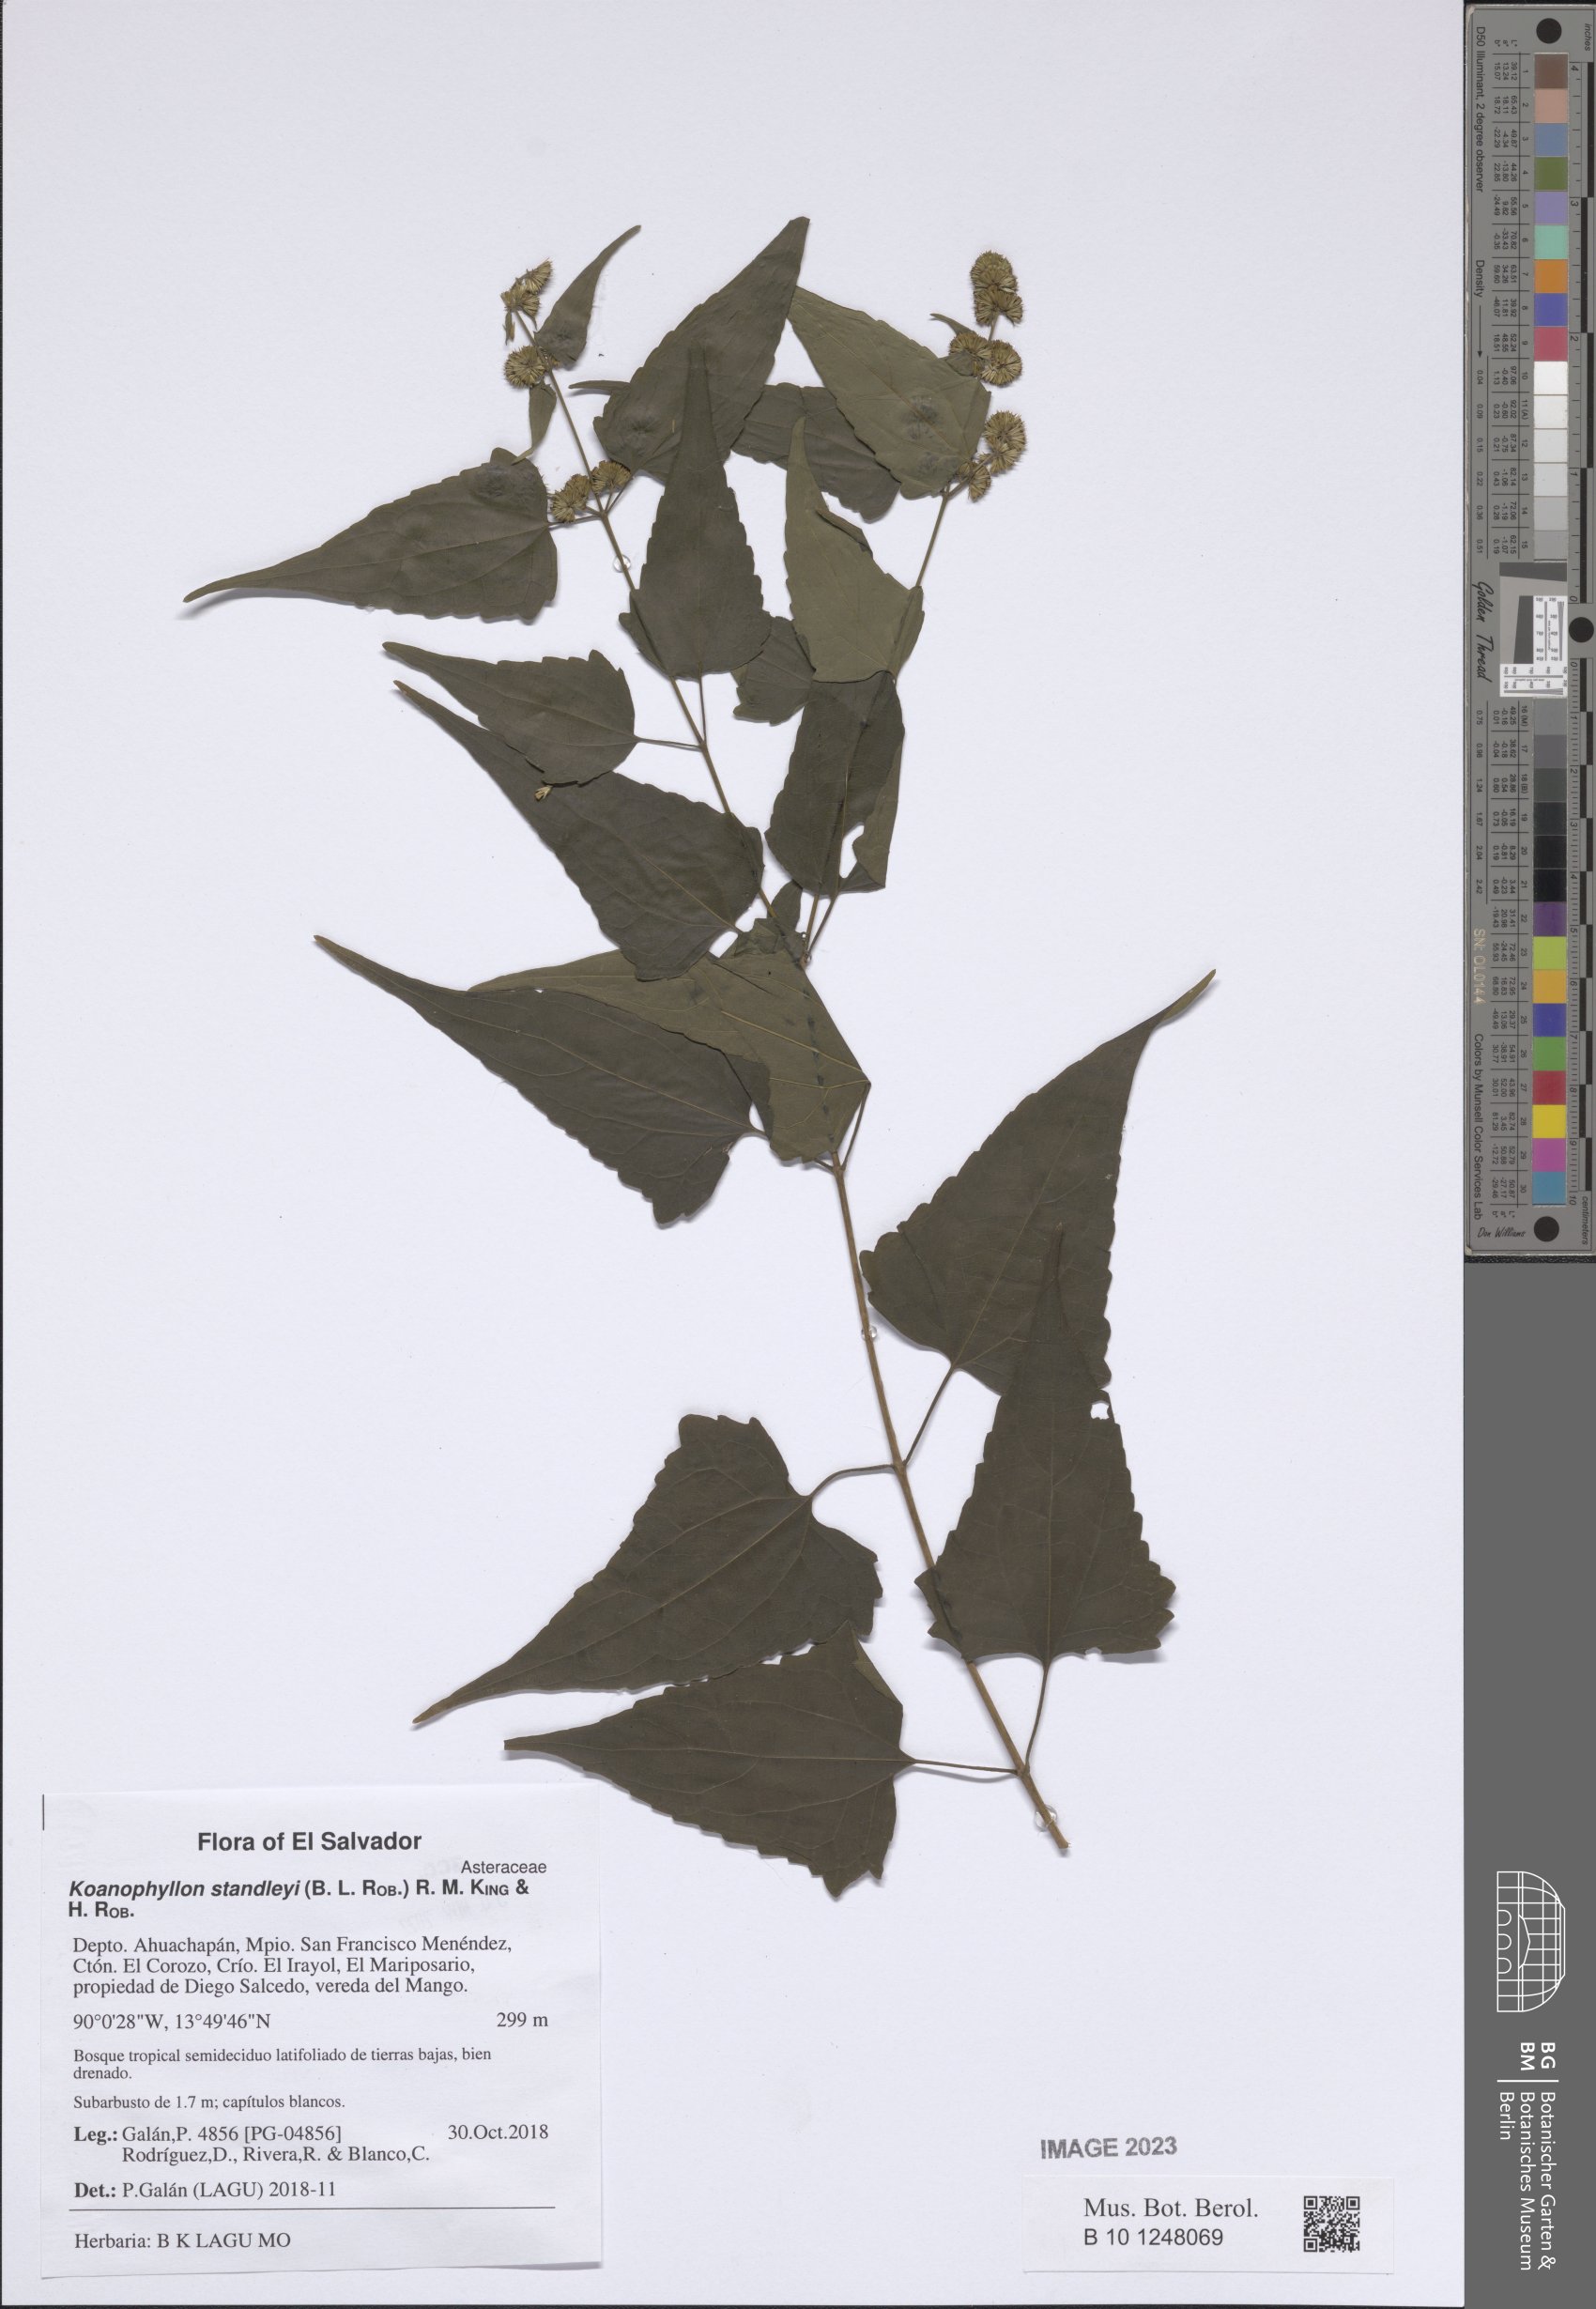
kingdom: Plantae
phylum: Tracheophyta
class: Magnoliopsida
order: Asterales
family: Asteraceae
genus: Koanophyllon
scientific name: Koanophyllon standleyi
